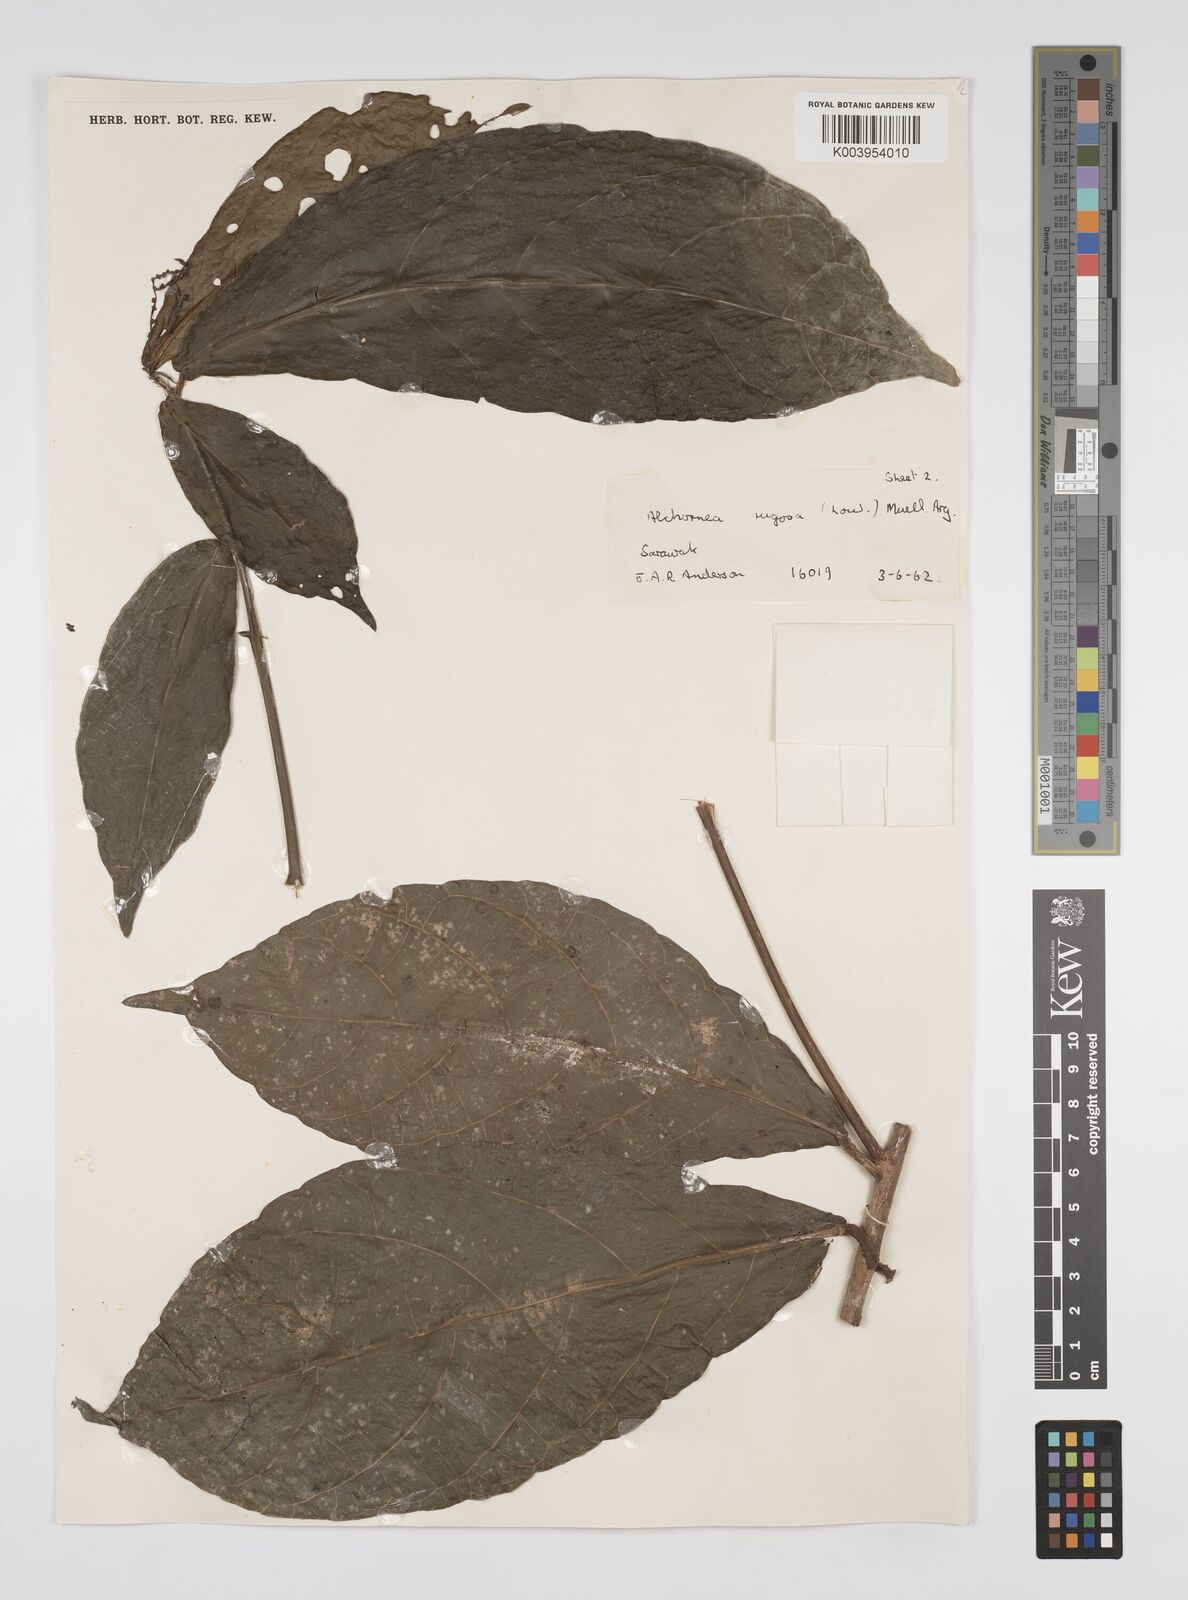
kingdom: Plantae
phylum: Tracheophyta
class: Magnoliopsida
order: Malpighiales
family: Euphorbiaceae
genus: Alchornea
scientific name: Alchornea rugosa
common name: Alchorntree
